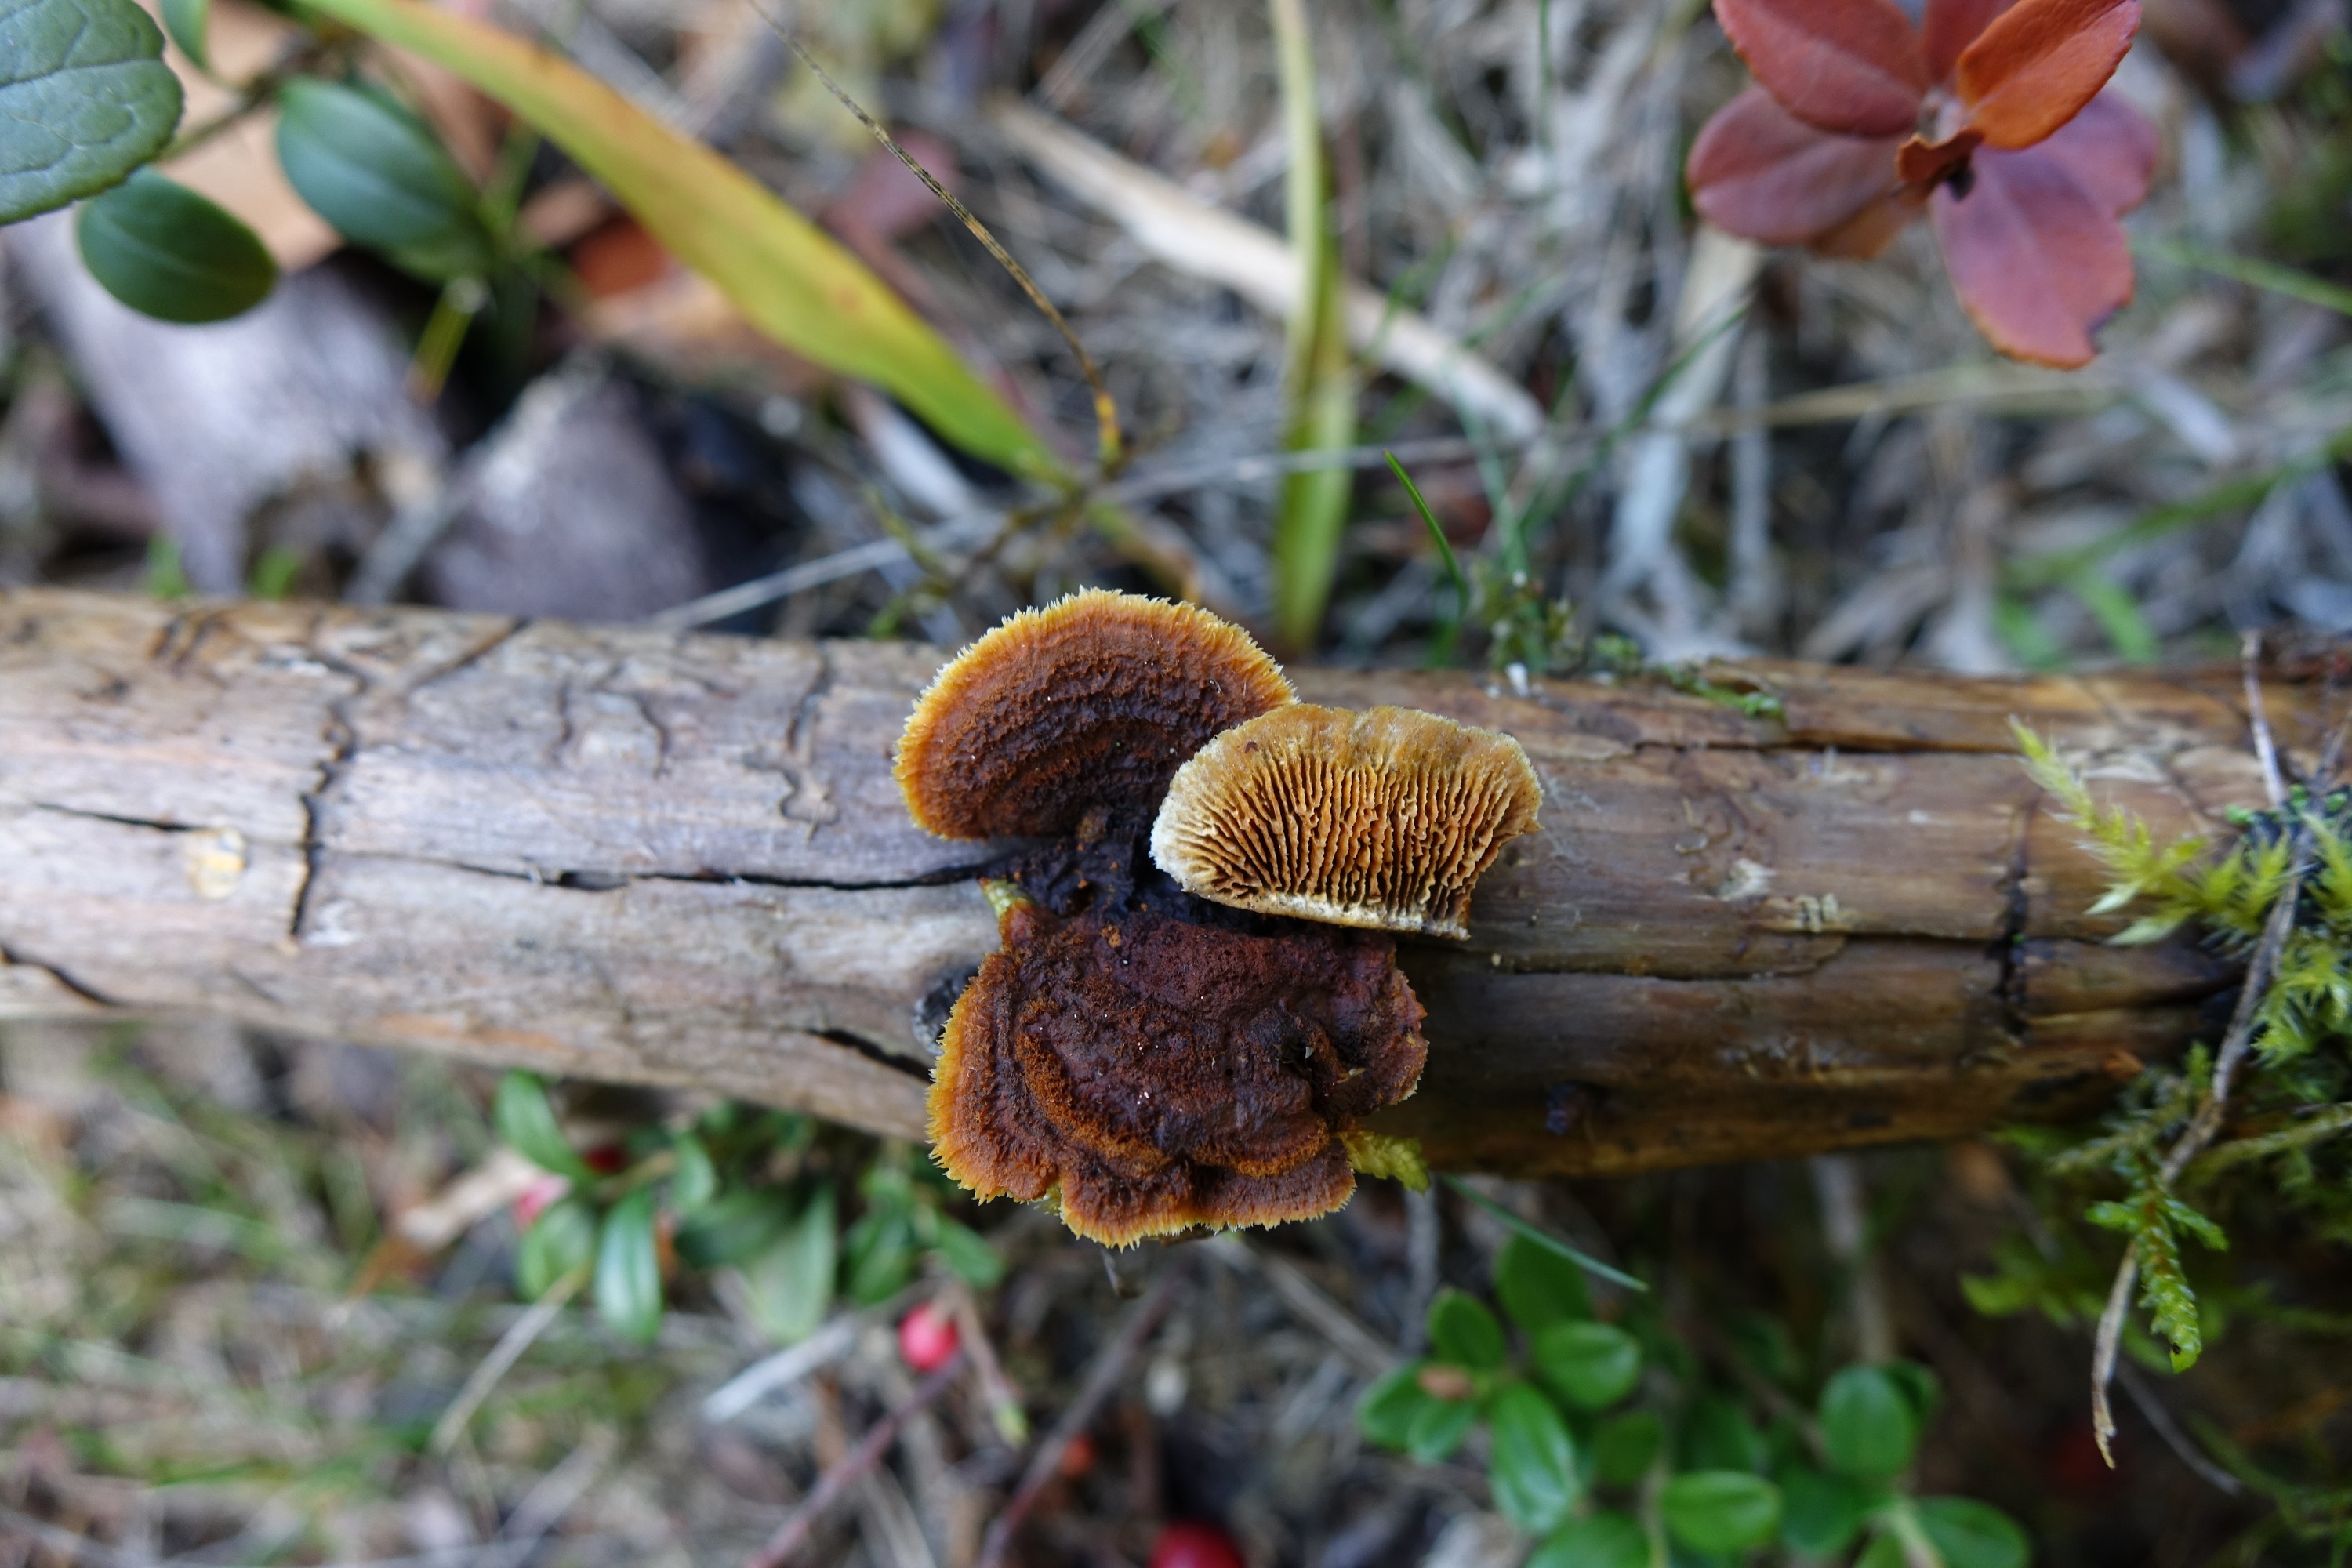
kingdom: Fungi
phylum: Basidiomycota
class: Agaricomycetes
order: Gloeophyllales
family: Gloeophyllaceae
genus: Gloeophyllum
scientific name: Gloeophyllum sepiarium
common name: Conifer mazegill
